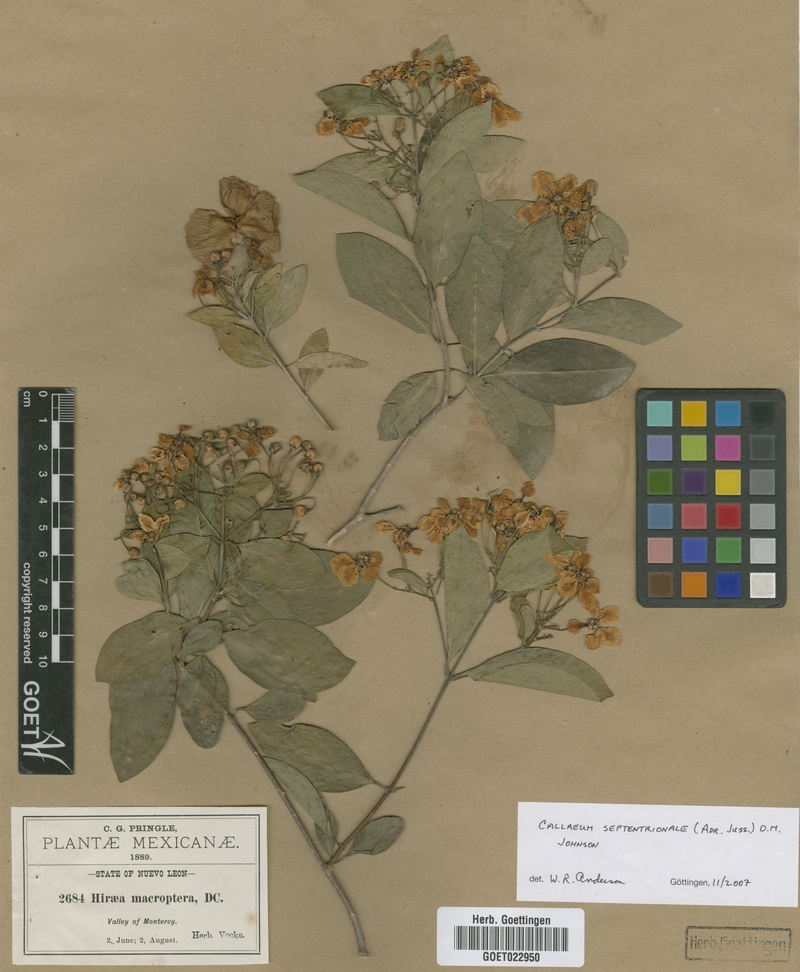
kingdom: Plantae
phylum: Tracheophyta
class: Magnoliopsida
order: Malpighiales
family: Malpighiaceae
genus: Callaeum
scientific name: Callaeum septentrionale
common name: Naranjillo
